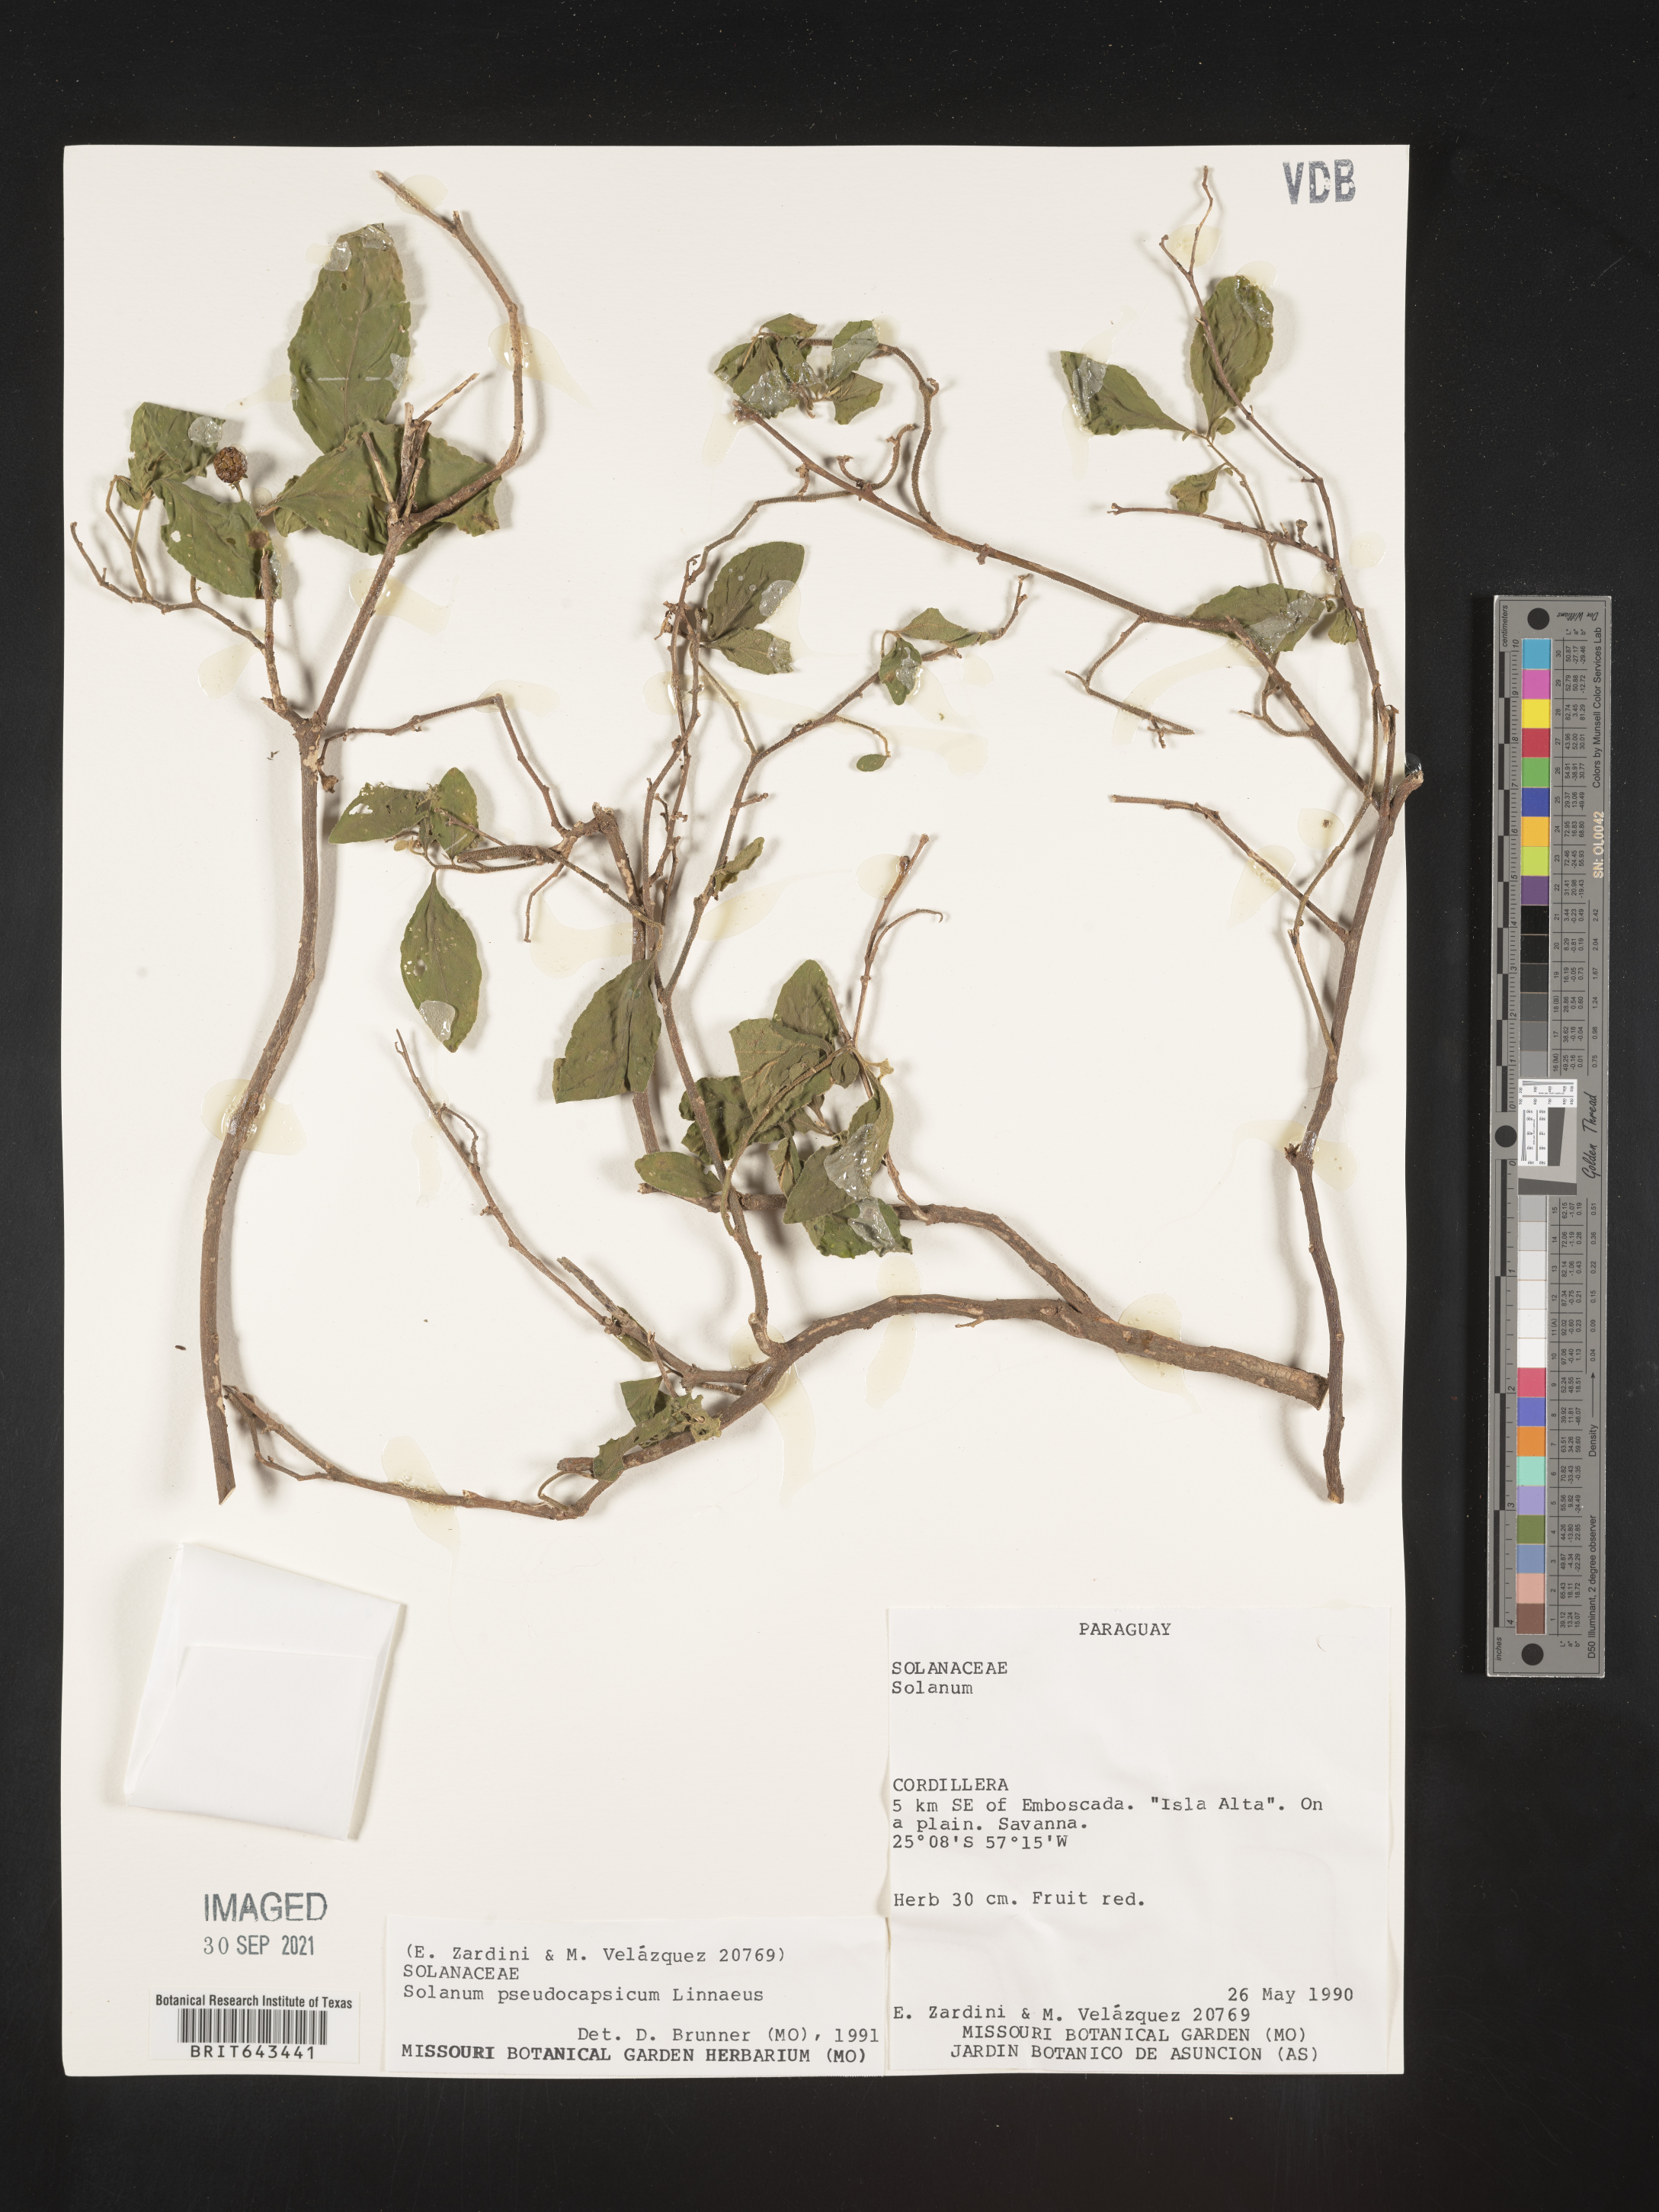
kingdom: Plantae
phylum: Tracheophyta
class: Magnoliopsida
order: Solanales
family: Solanaceae
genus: Solanum
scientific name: Solanum
